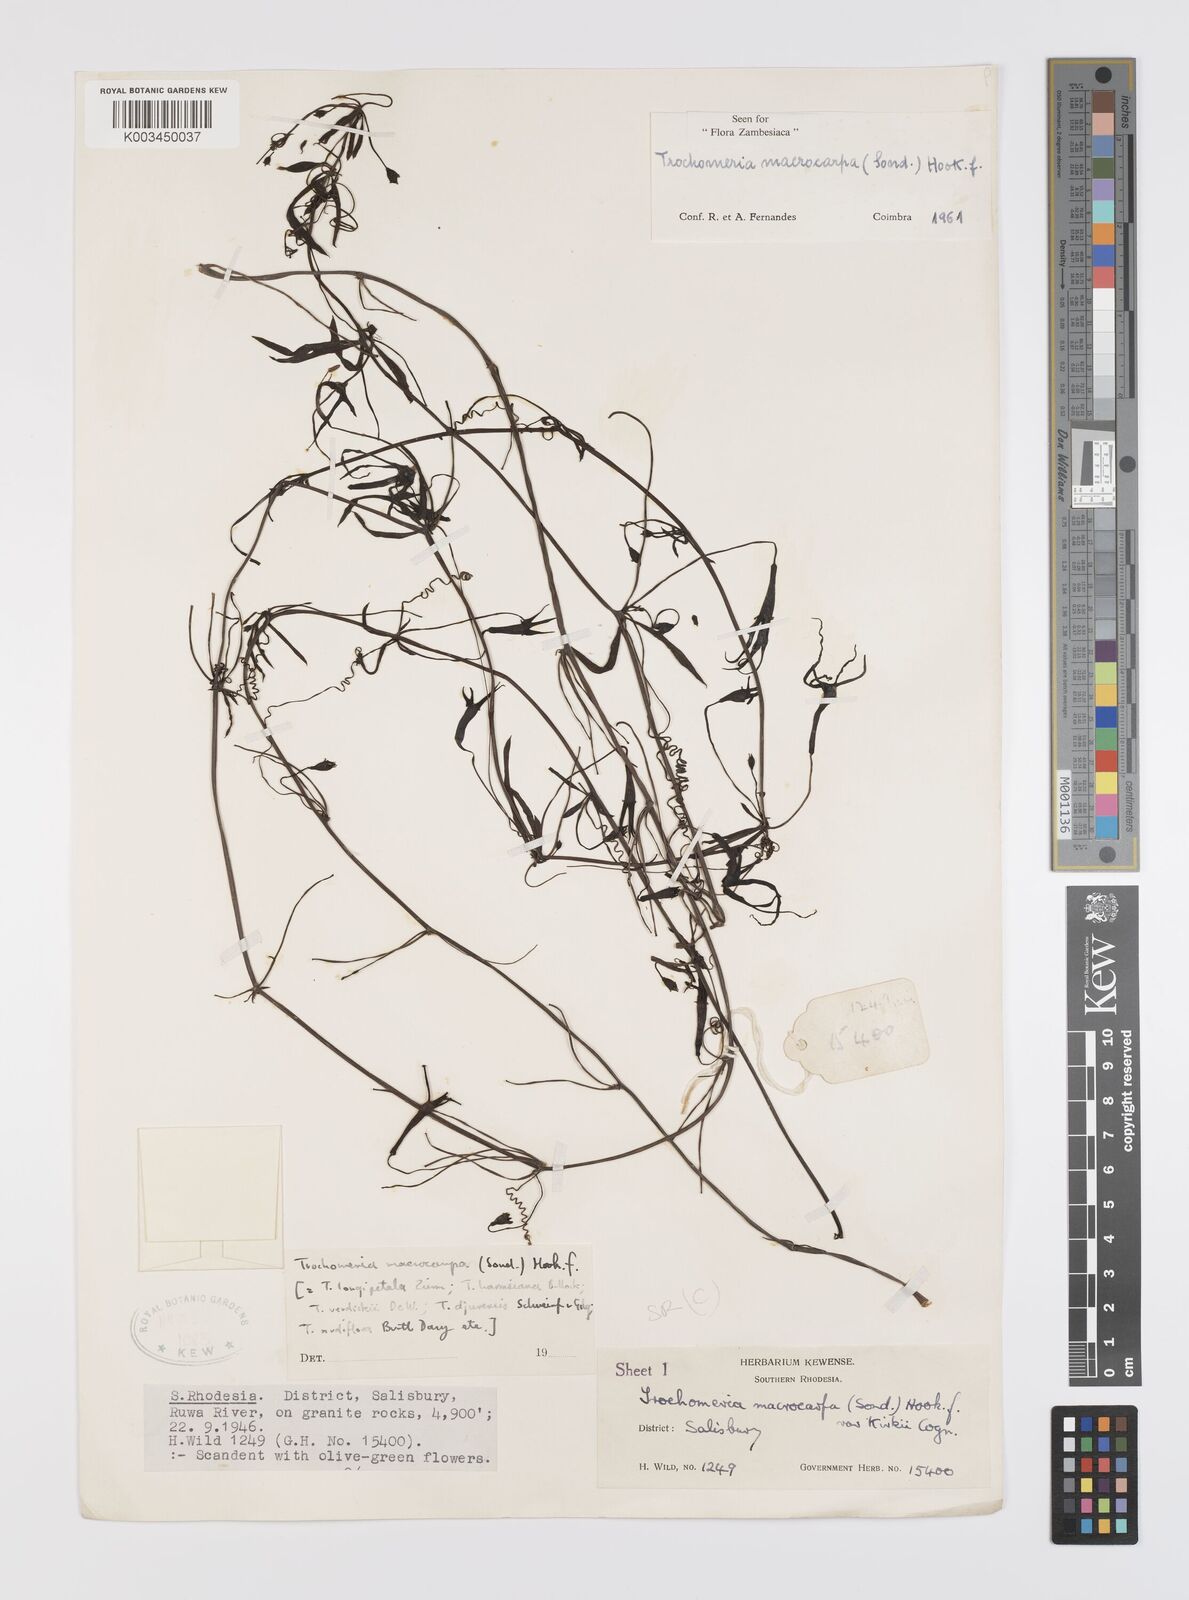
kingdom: Plantae
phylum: Tracheophyta
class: Magnoliopsida
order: Cucurbitales
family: Cucurbitaceae
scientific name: Cucurbitaceae
